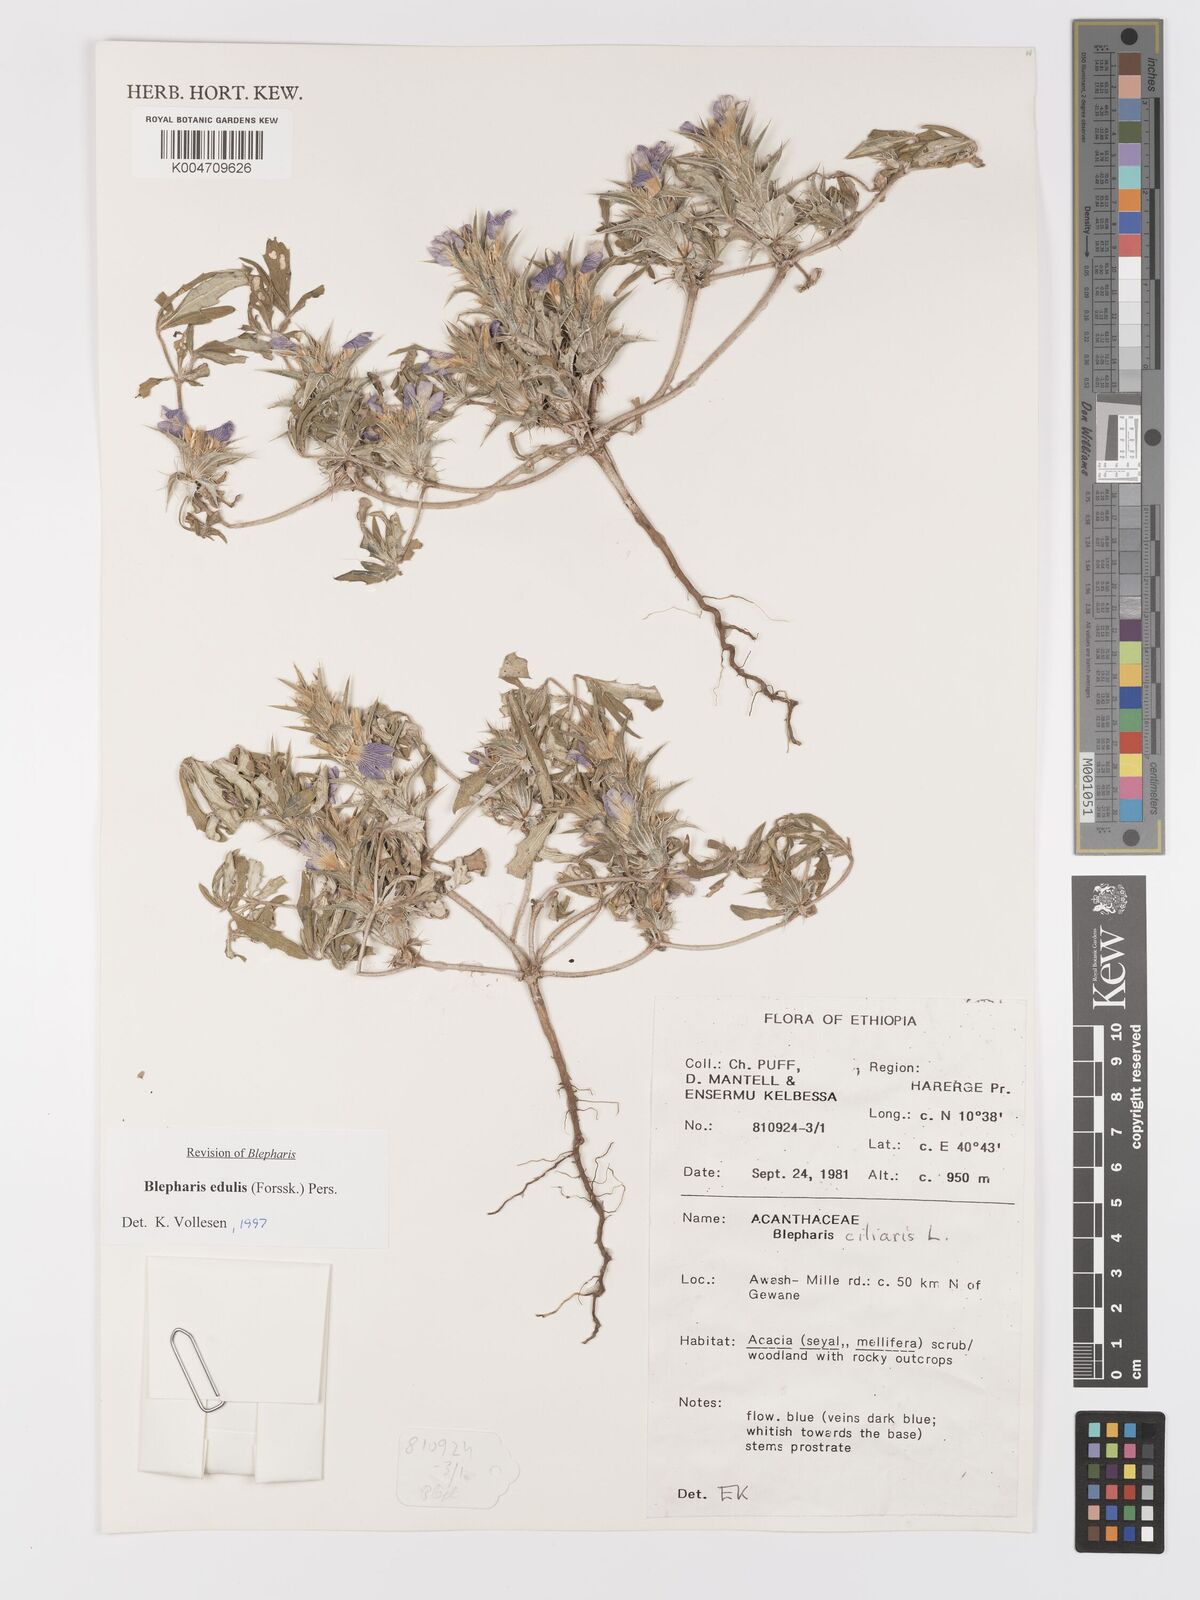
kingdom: Plantae
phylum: Tracheophyta
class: Magnoliopsida
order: Lamiales
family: Acanthaceae
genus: Blepharis
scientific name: Blepharis edulis
